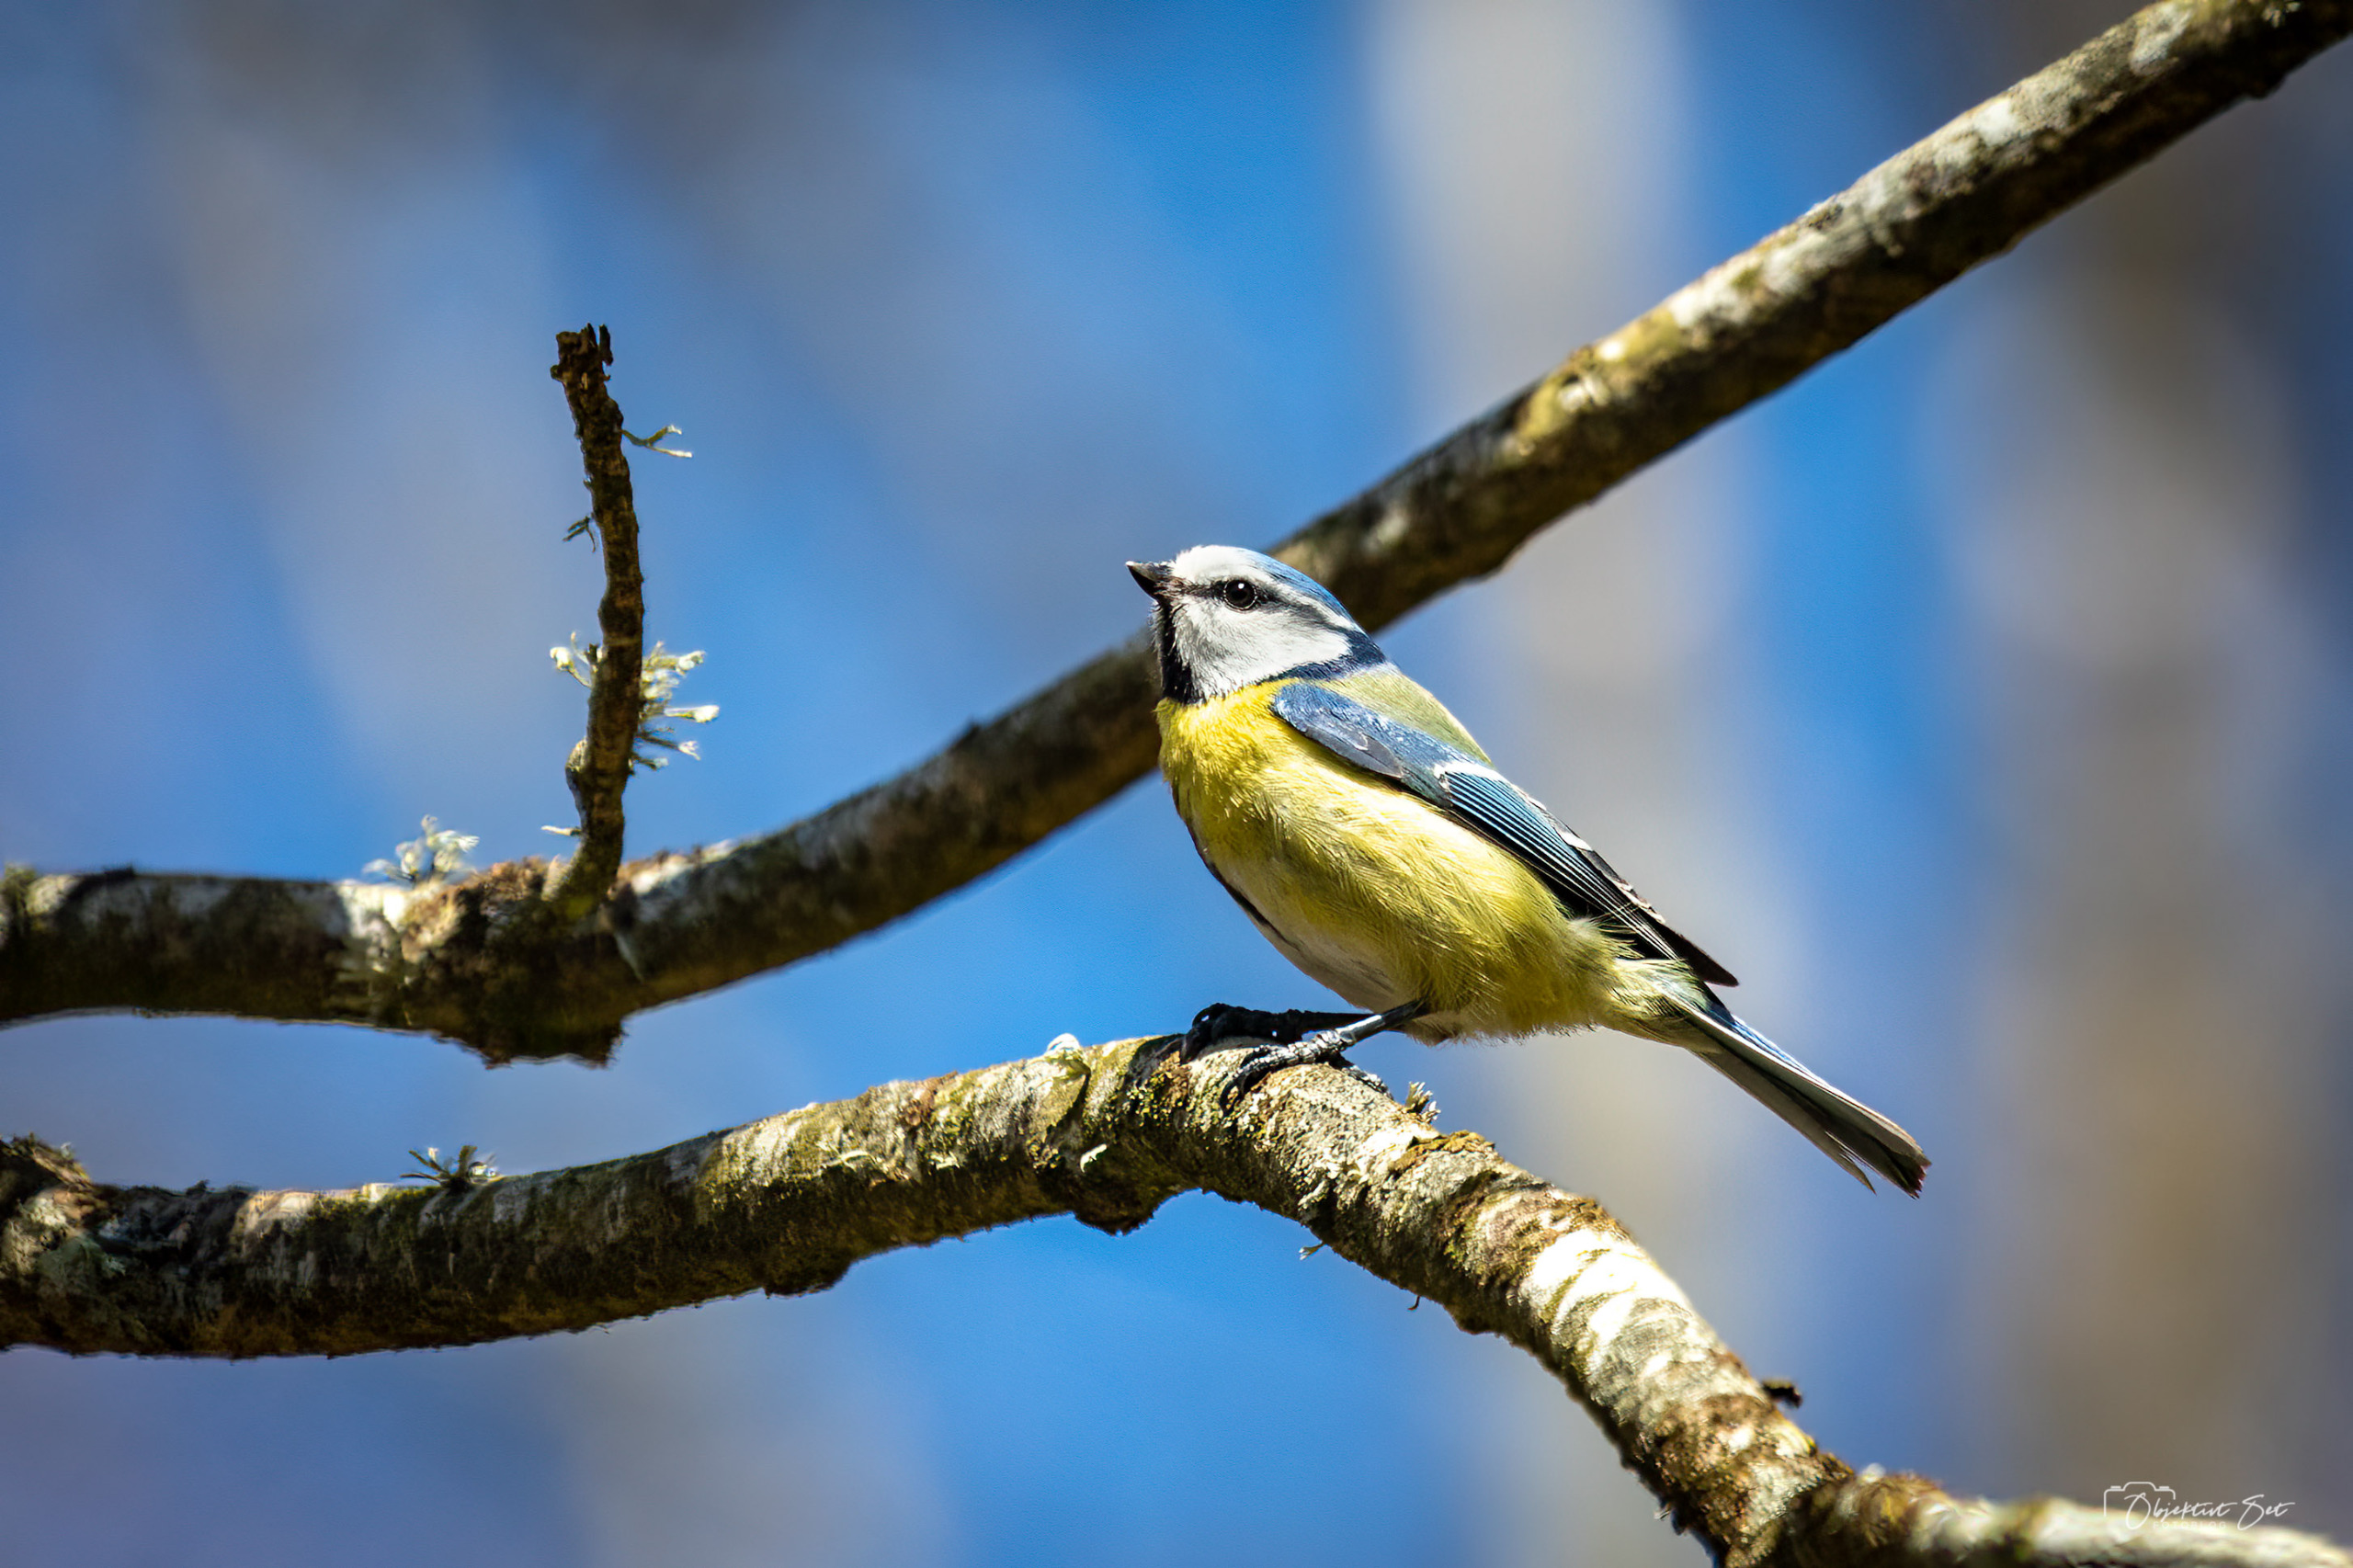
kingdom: Animalia
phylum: Chordata
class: Aves
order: Passeriformes
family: Paridae
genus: Cyanistes
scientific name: Cyanistes caeruleus
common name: Blåmejse
